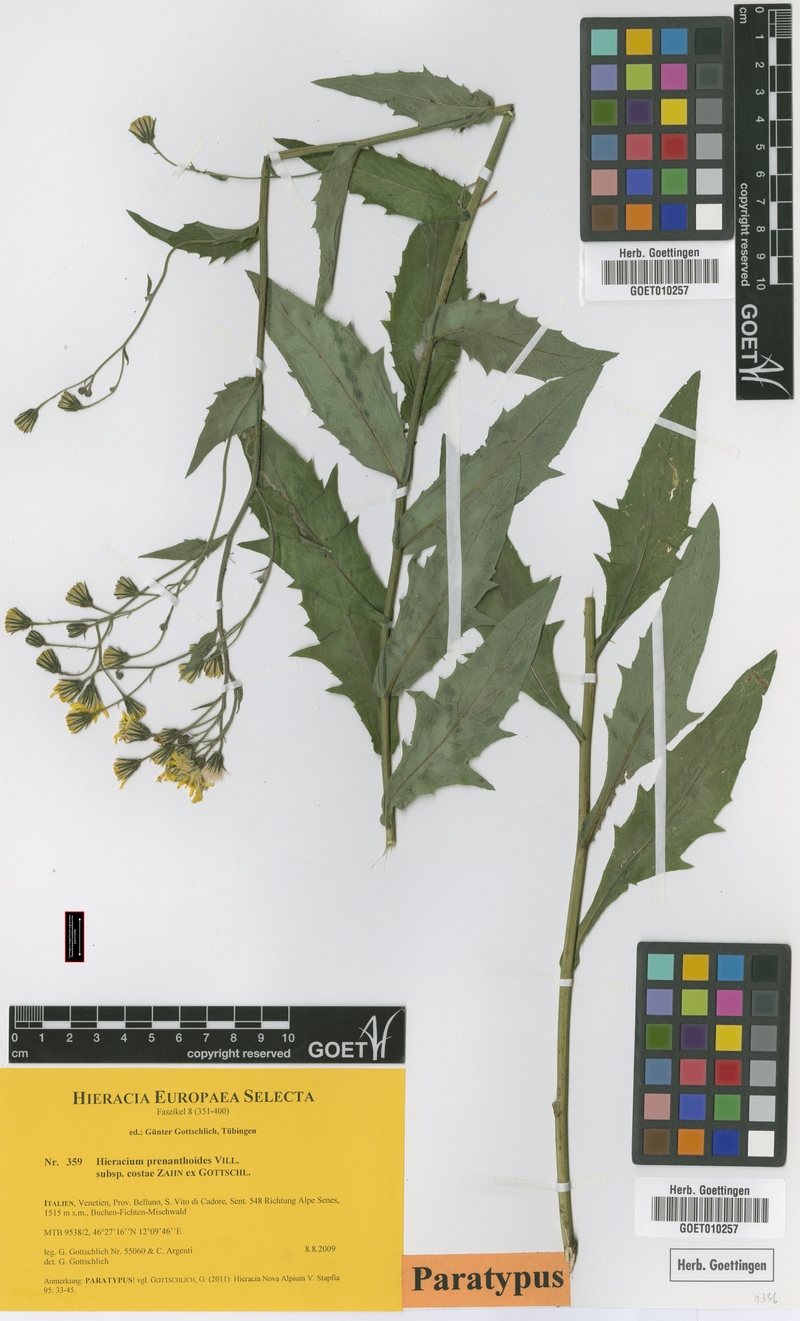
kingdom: Plantae
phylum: Tracheophyta
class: Magnoliopsida
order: Asterales
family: Asteraceae
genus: Hieracium
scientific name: Hieracium prenanthoides
